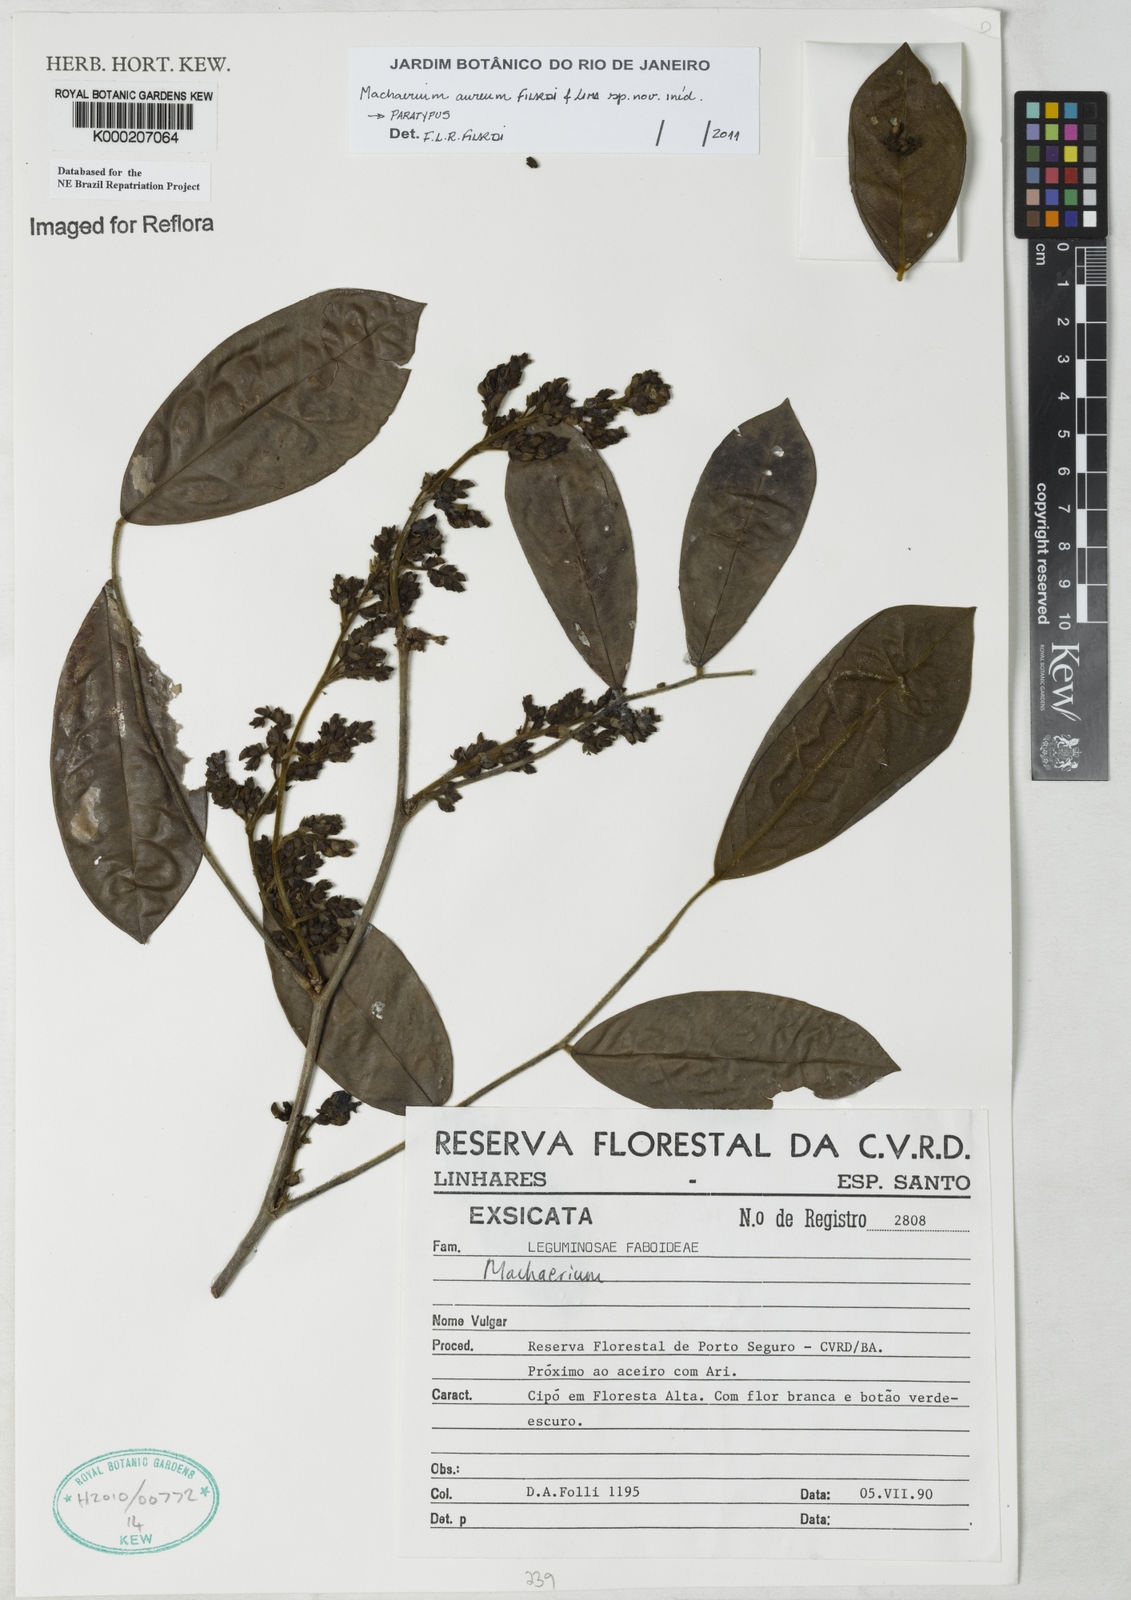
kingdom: Plantae
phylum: Tracheophyta
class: Magnoliopsida
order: Fabales
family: Fabaceae
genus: Machaerium
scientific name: Machaerium
